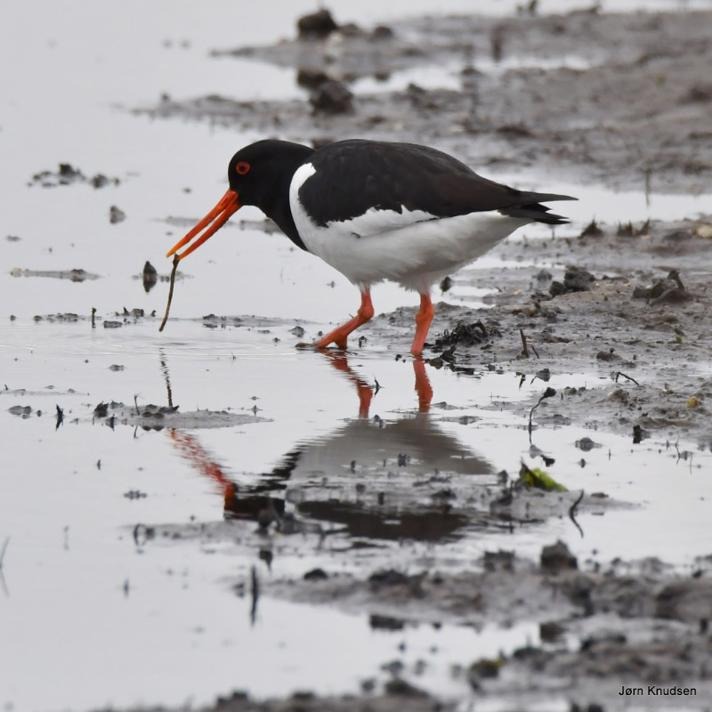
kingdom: Animalia
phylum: Chordata
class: Aves
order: Charadriiformes
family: Haematopodidae
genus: Haematopus
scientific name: Haematopus ostralegus
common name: Strandskade
